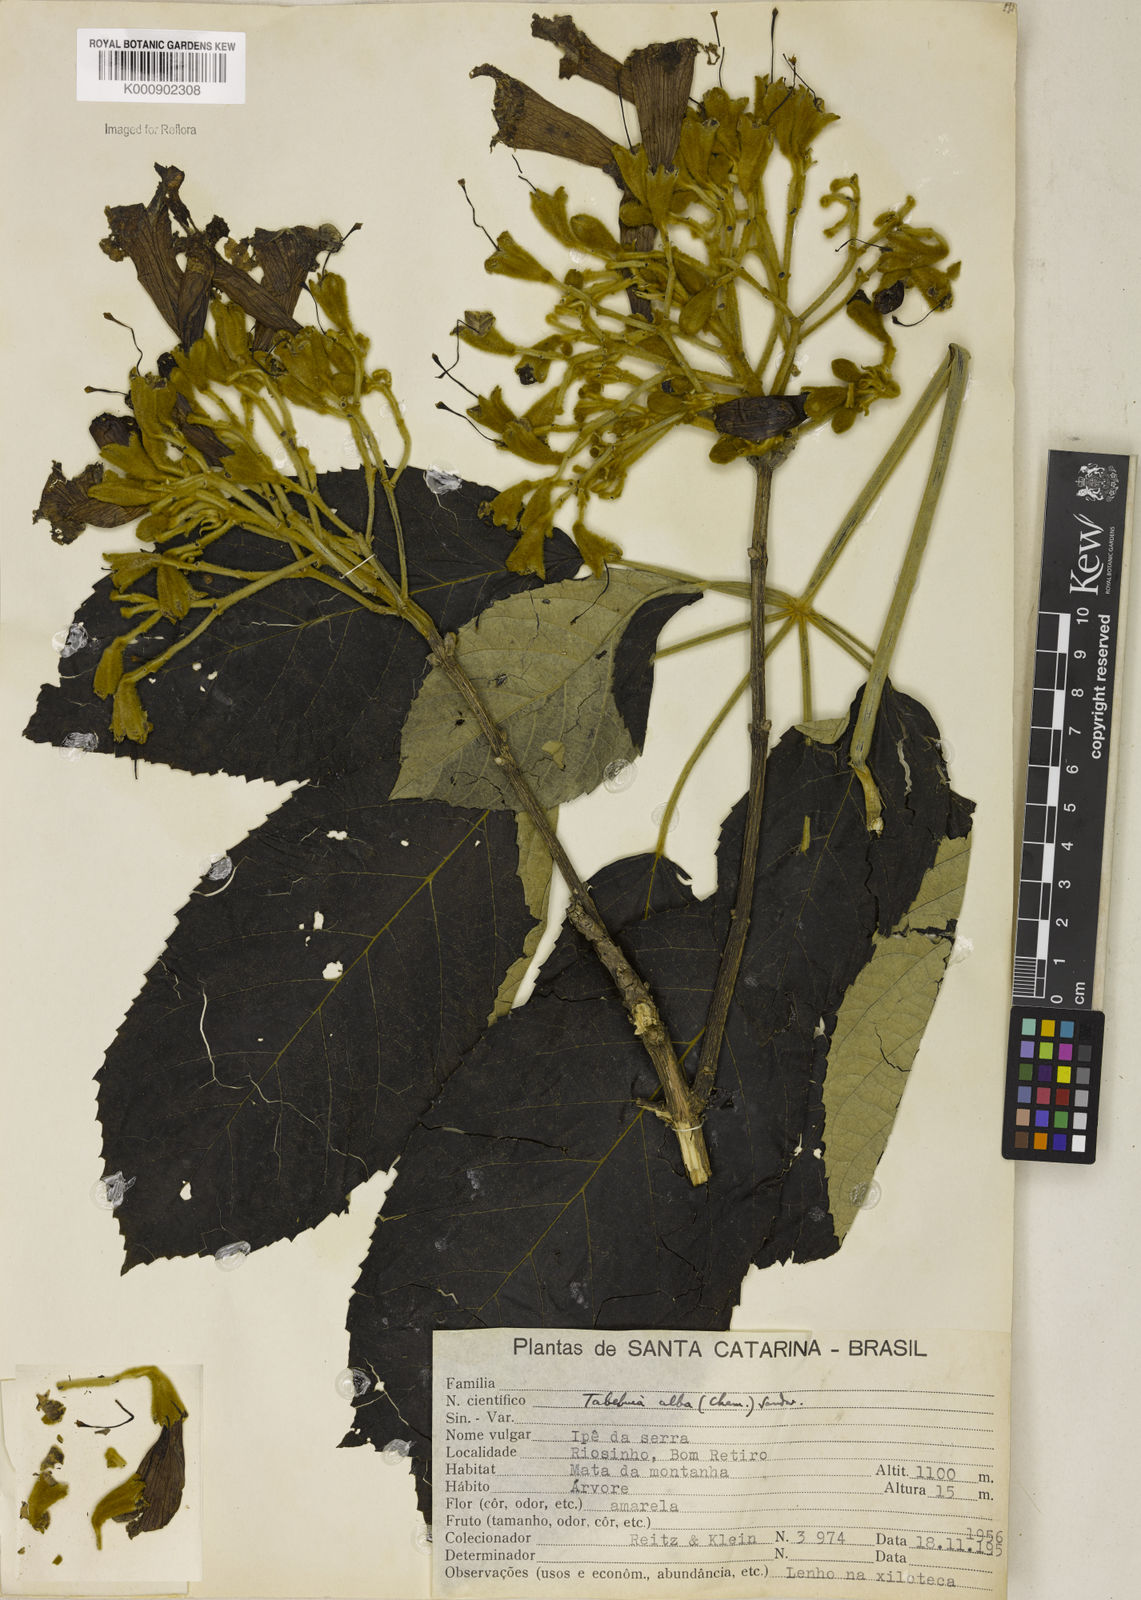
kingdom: Plantae
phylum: Tracheophyta
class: Magnoliopsida
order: Lamiales
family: Bignoniaceae
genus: Handroanthus
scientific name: Handroanthus albus
